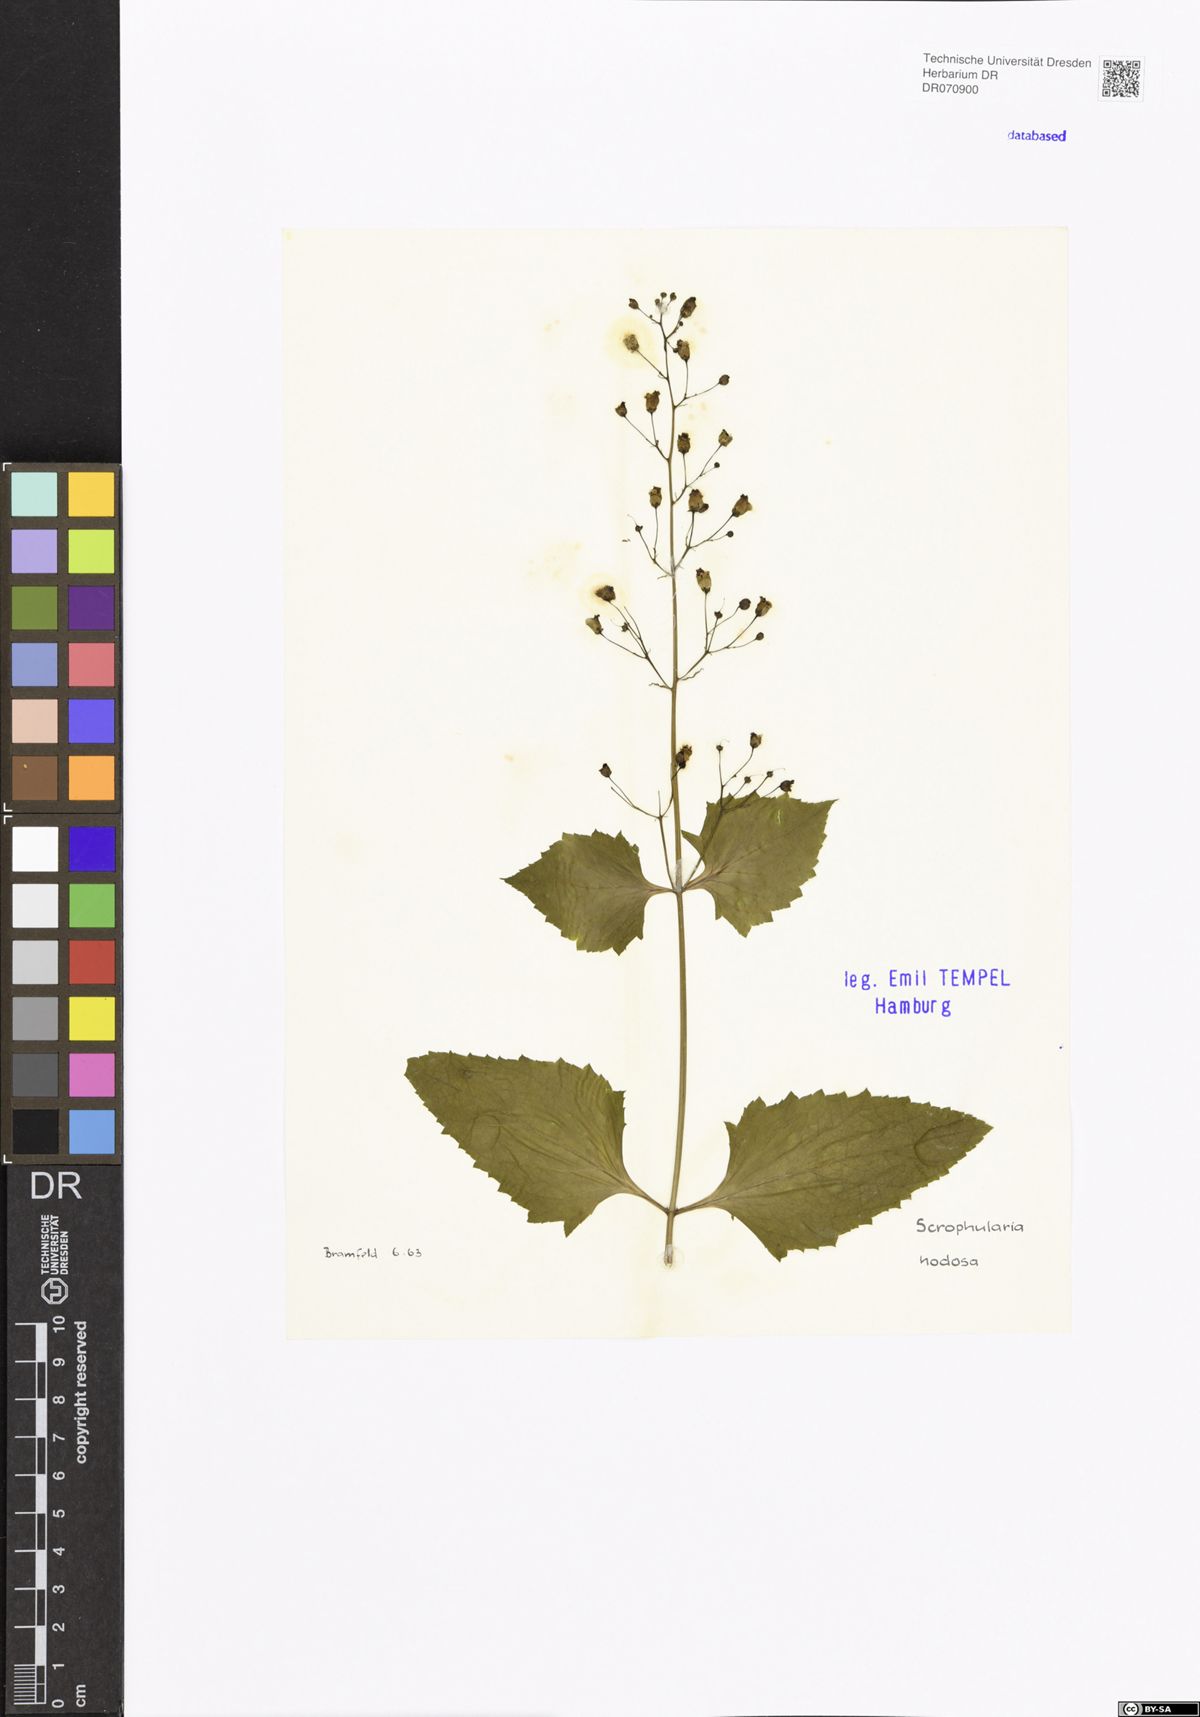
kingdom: Plantae
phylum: Tracheophyta
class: Magnoliopsida
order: Lamiales
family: Scrophulariaceae
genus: Scrophularia
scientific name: Scrophularia nodosa
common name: Common figwort
